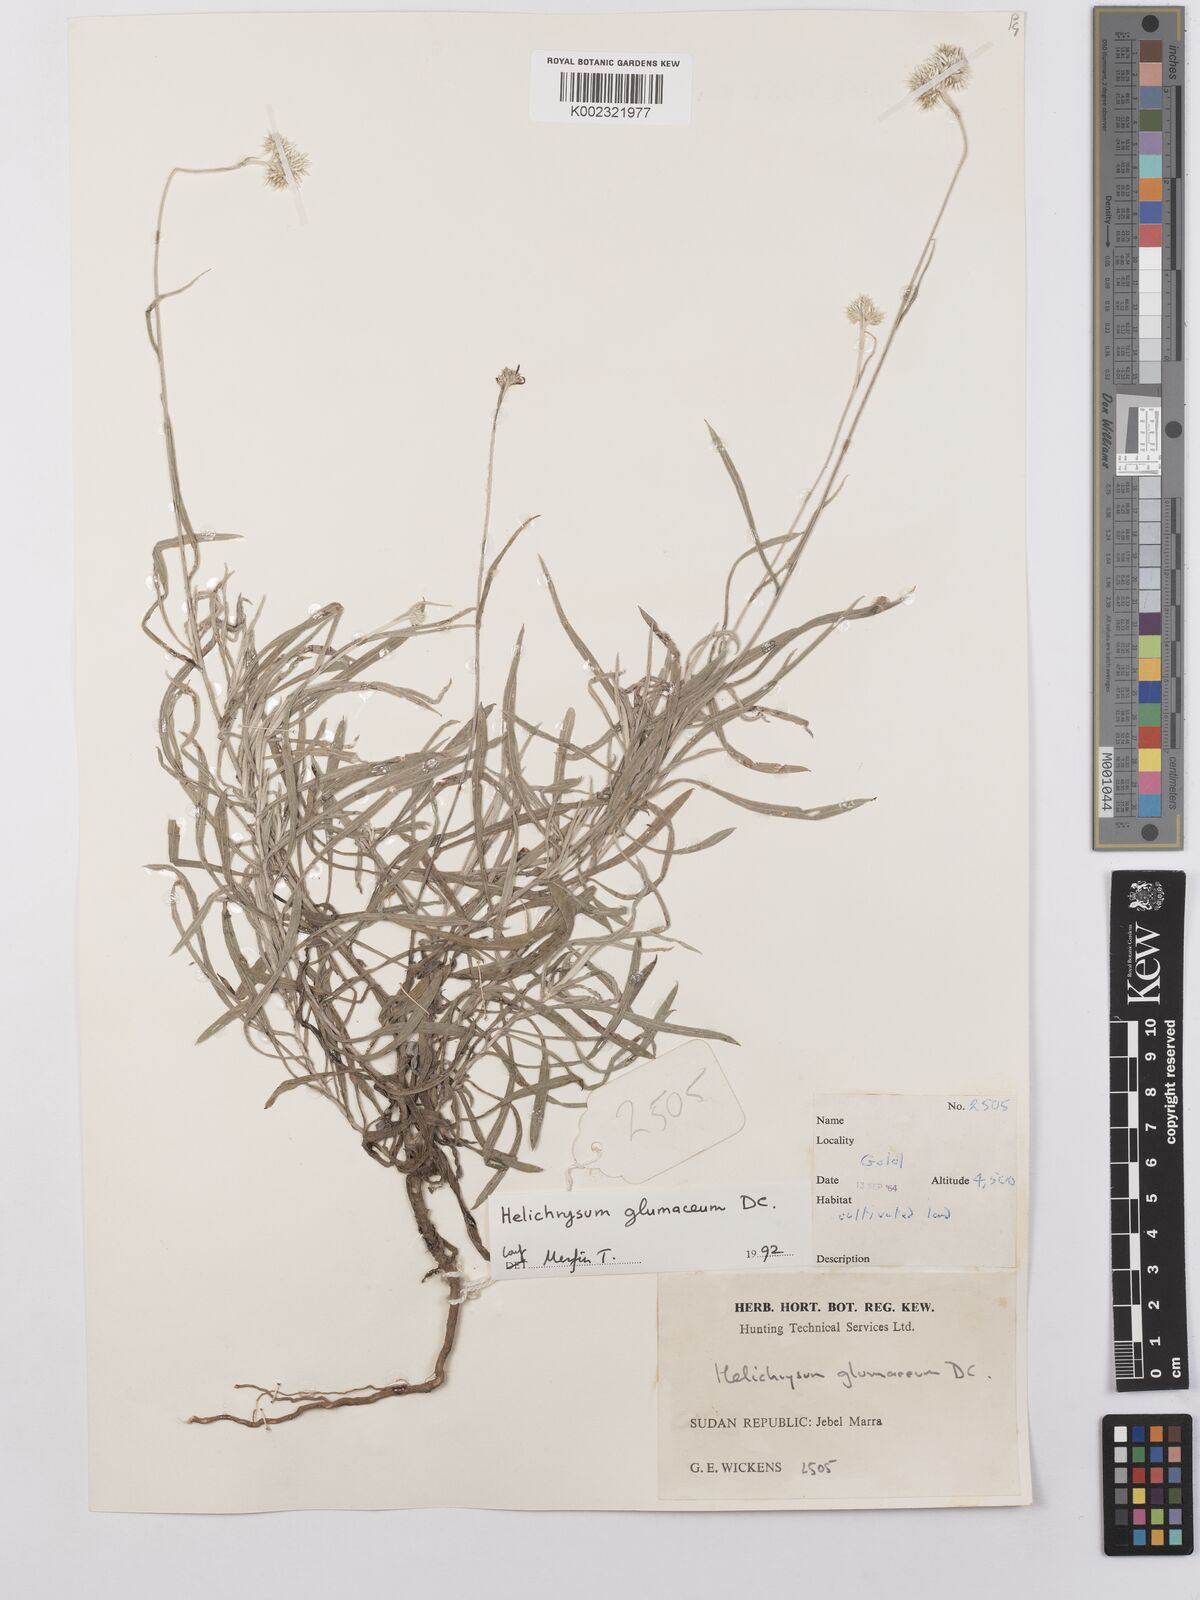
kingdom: Plantae
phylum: Tracheophyta
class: Magnoliopsida
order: Asterales
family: Asteraceae
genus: Helichrysum
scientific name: Helichrysum glumaceum
